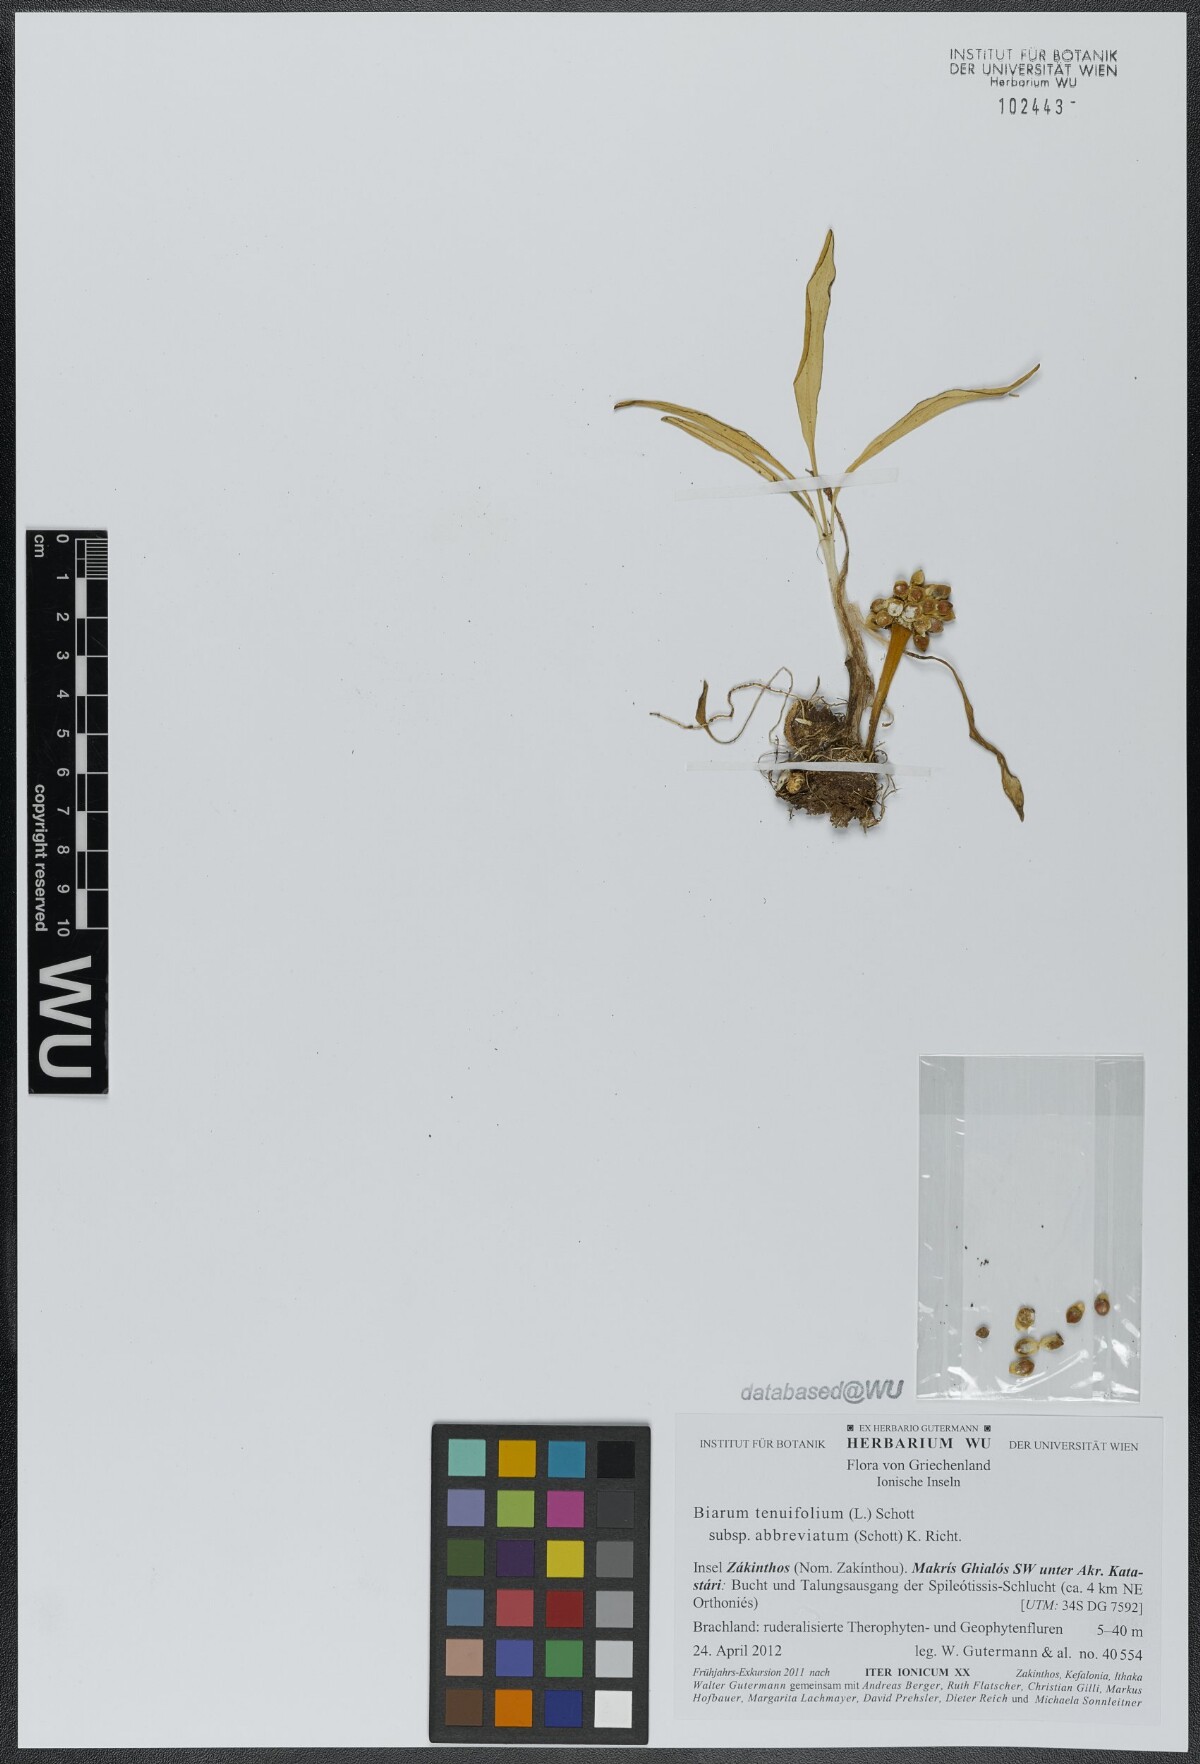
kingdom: Plantae
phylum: Tracheophyta
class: Liliopsida
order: Alismatales
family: Araceae
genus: Biarum
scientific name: Biarum tenuifolium
